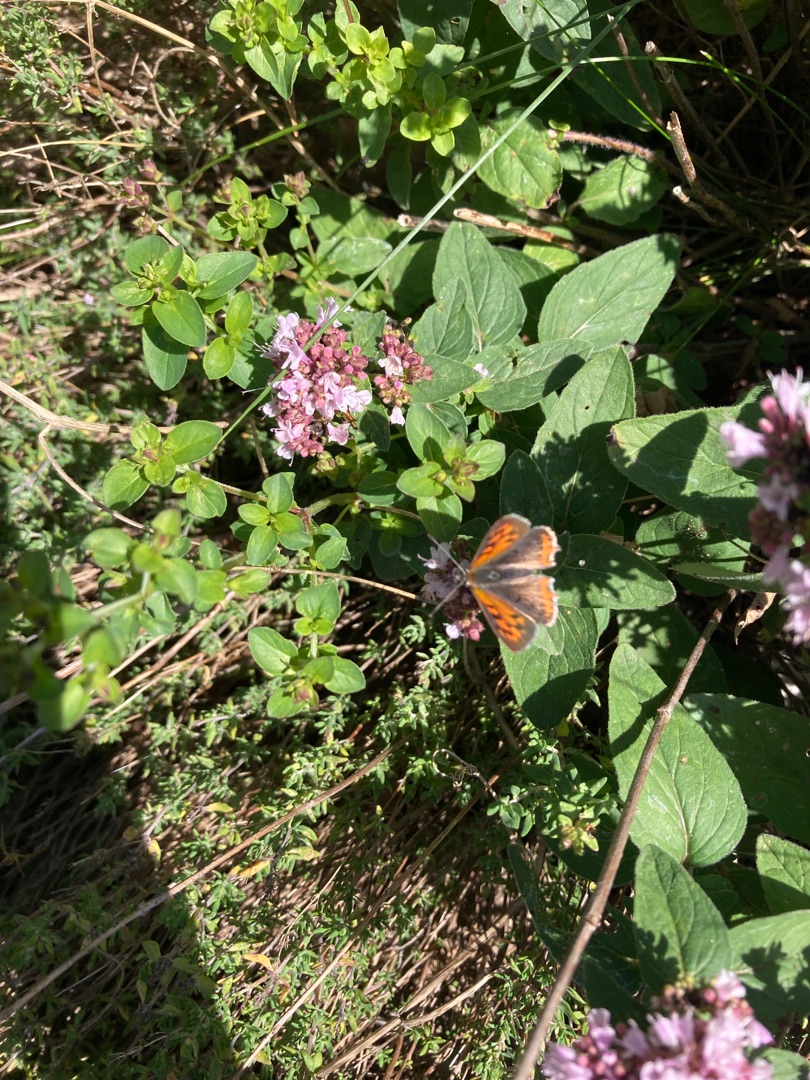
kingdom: Animalia
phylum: Arthropoda
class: Insecta
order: Lepidoptera
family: Lycaenidae
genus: Lycaena
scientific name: Lycaena phlaeas
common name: Lille ildfugl
